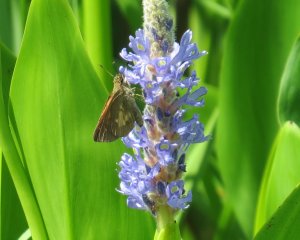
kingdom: Animalia
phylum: Arthropoda
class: Insecta
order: Lepidoptera
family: Hesperiidae
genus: Poanes
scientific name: Poanes viator
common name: Broad-winged Skipper
